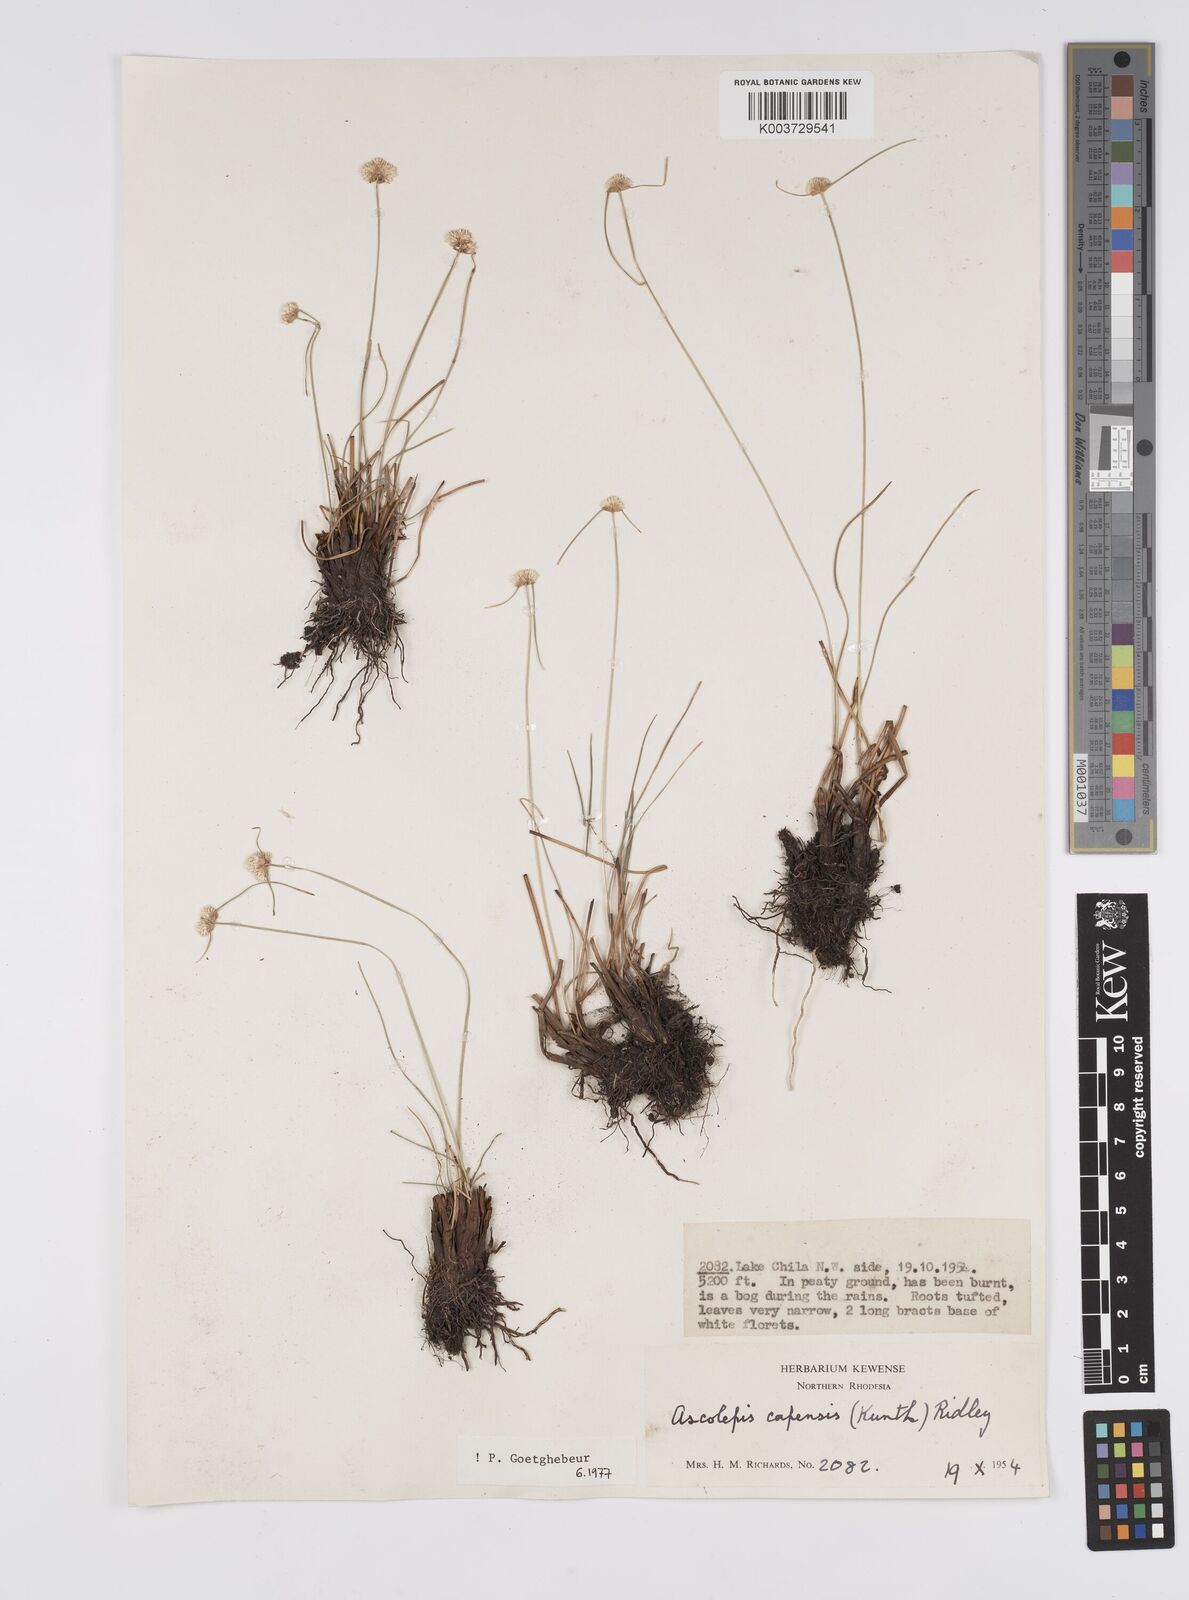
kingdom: Plantae
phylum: Tracheophyta
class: Liliopsida
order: Poales
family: Cyperaceae
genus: Cyperus
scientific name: Cyperus
